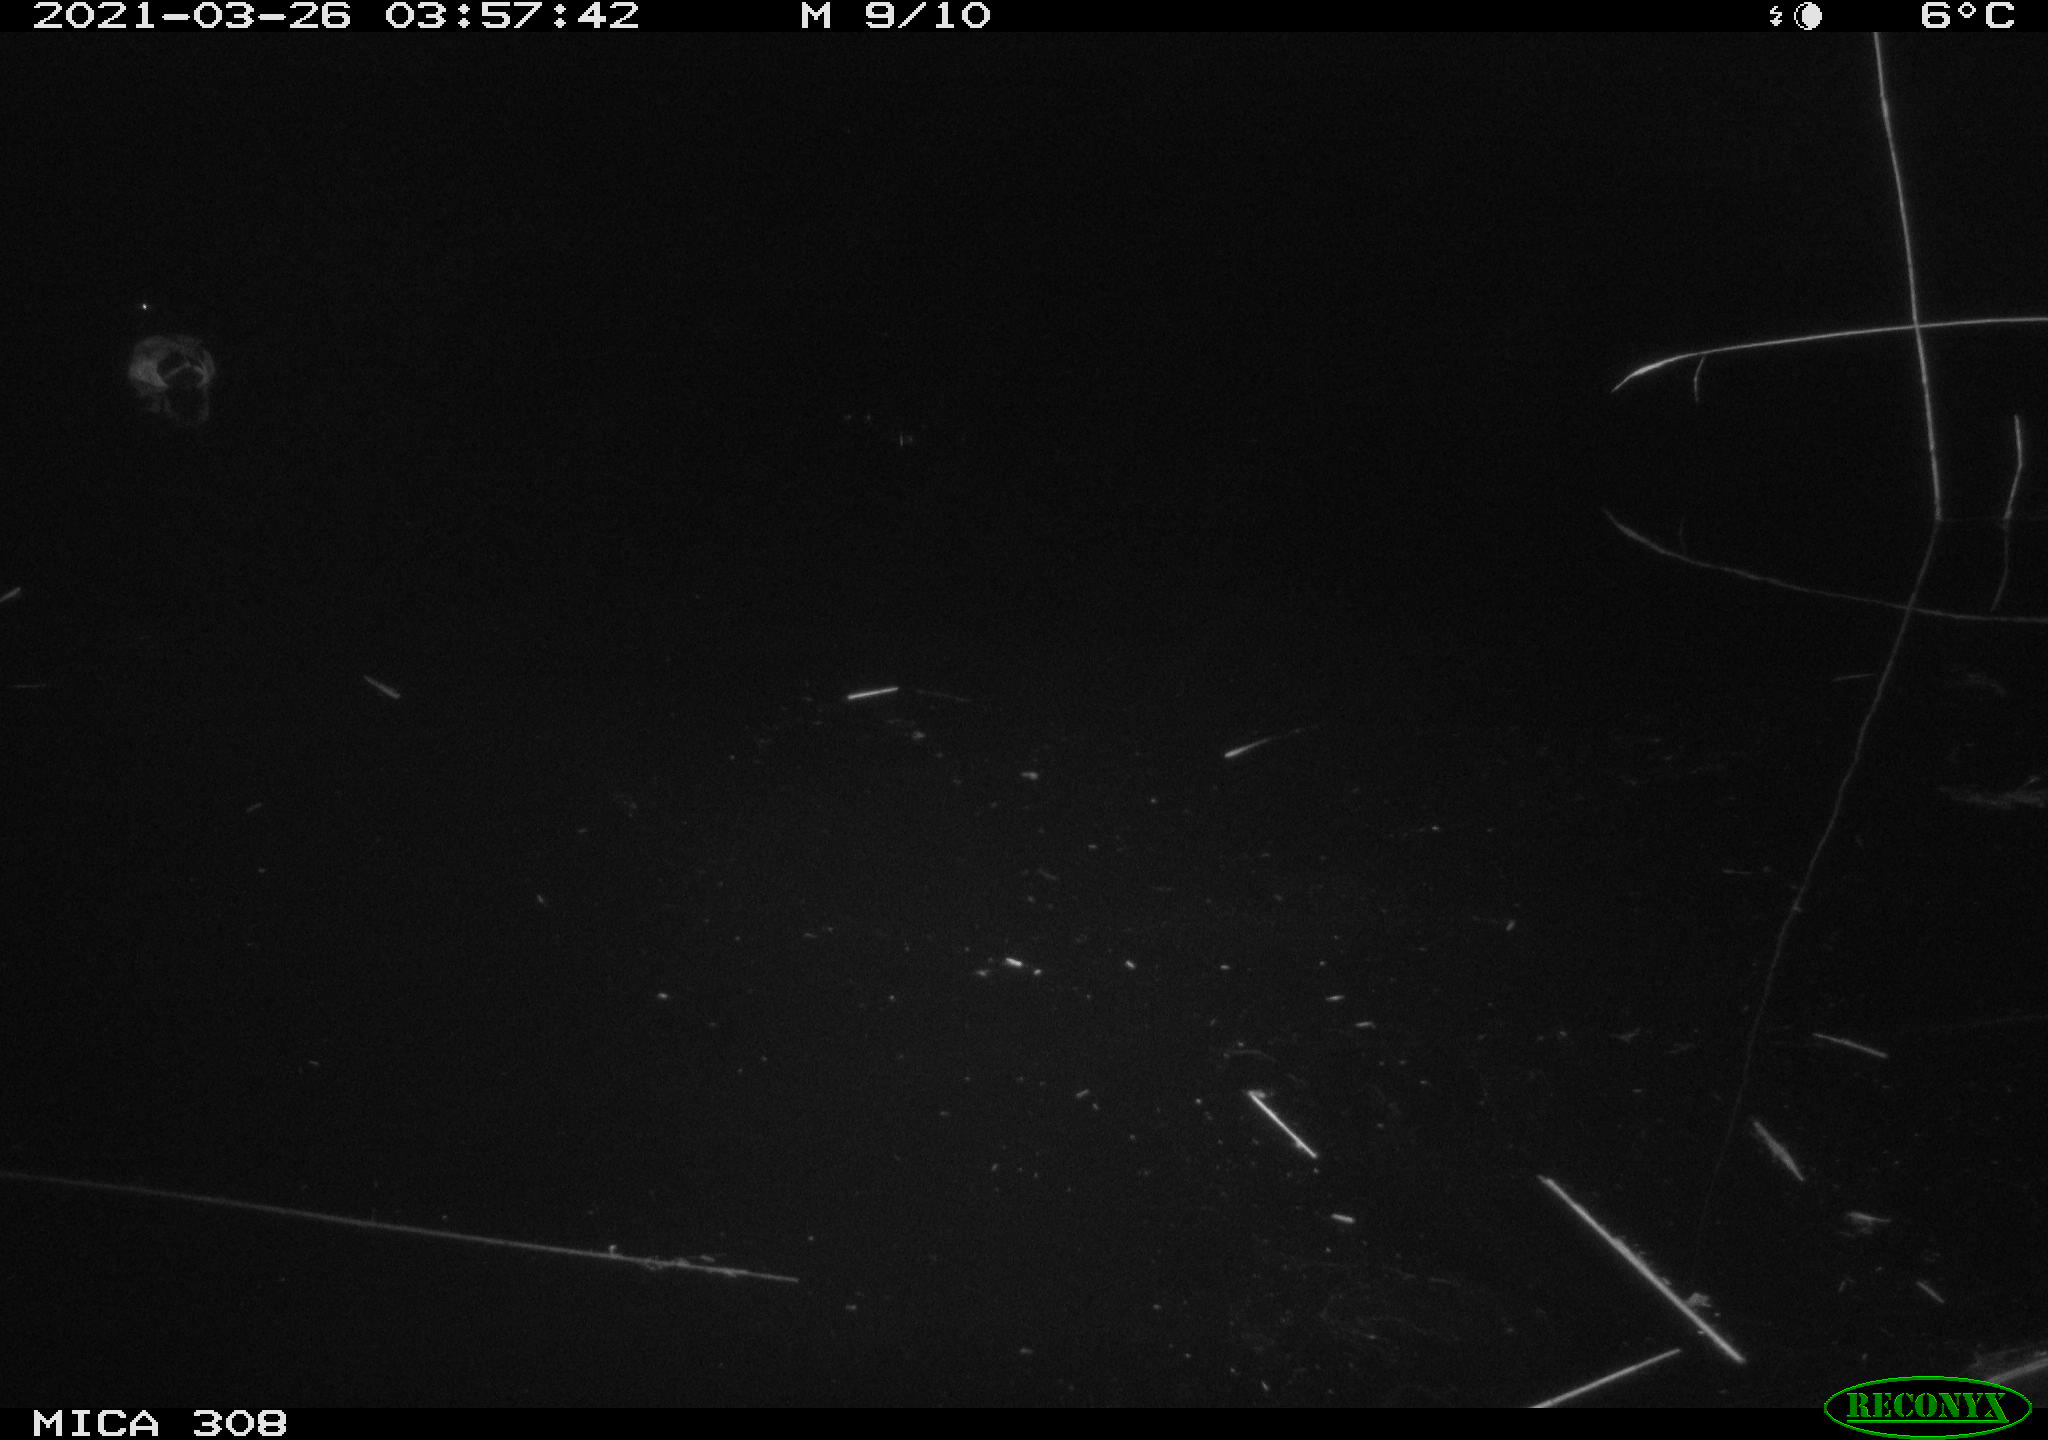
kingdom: Animalia
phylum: Chordata
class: Aves
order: Anseriformes
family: Anatidae
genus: Anas
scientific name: Anas platyrhynchos
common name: Mallard
